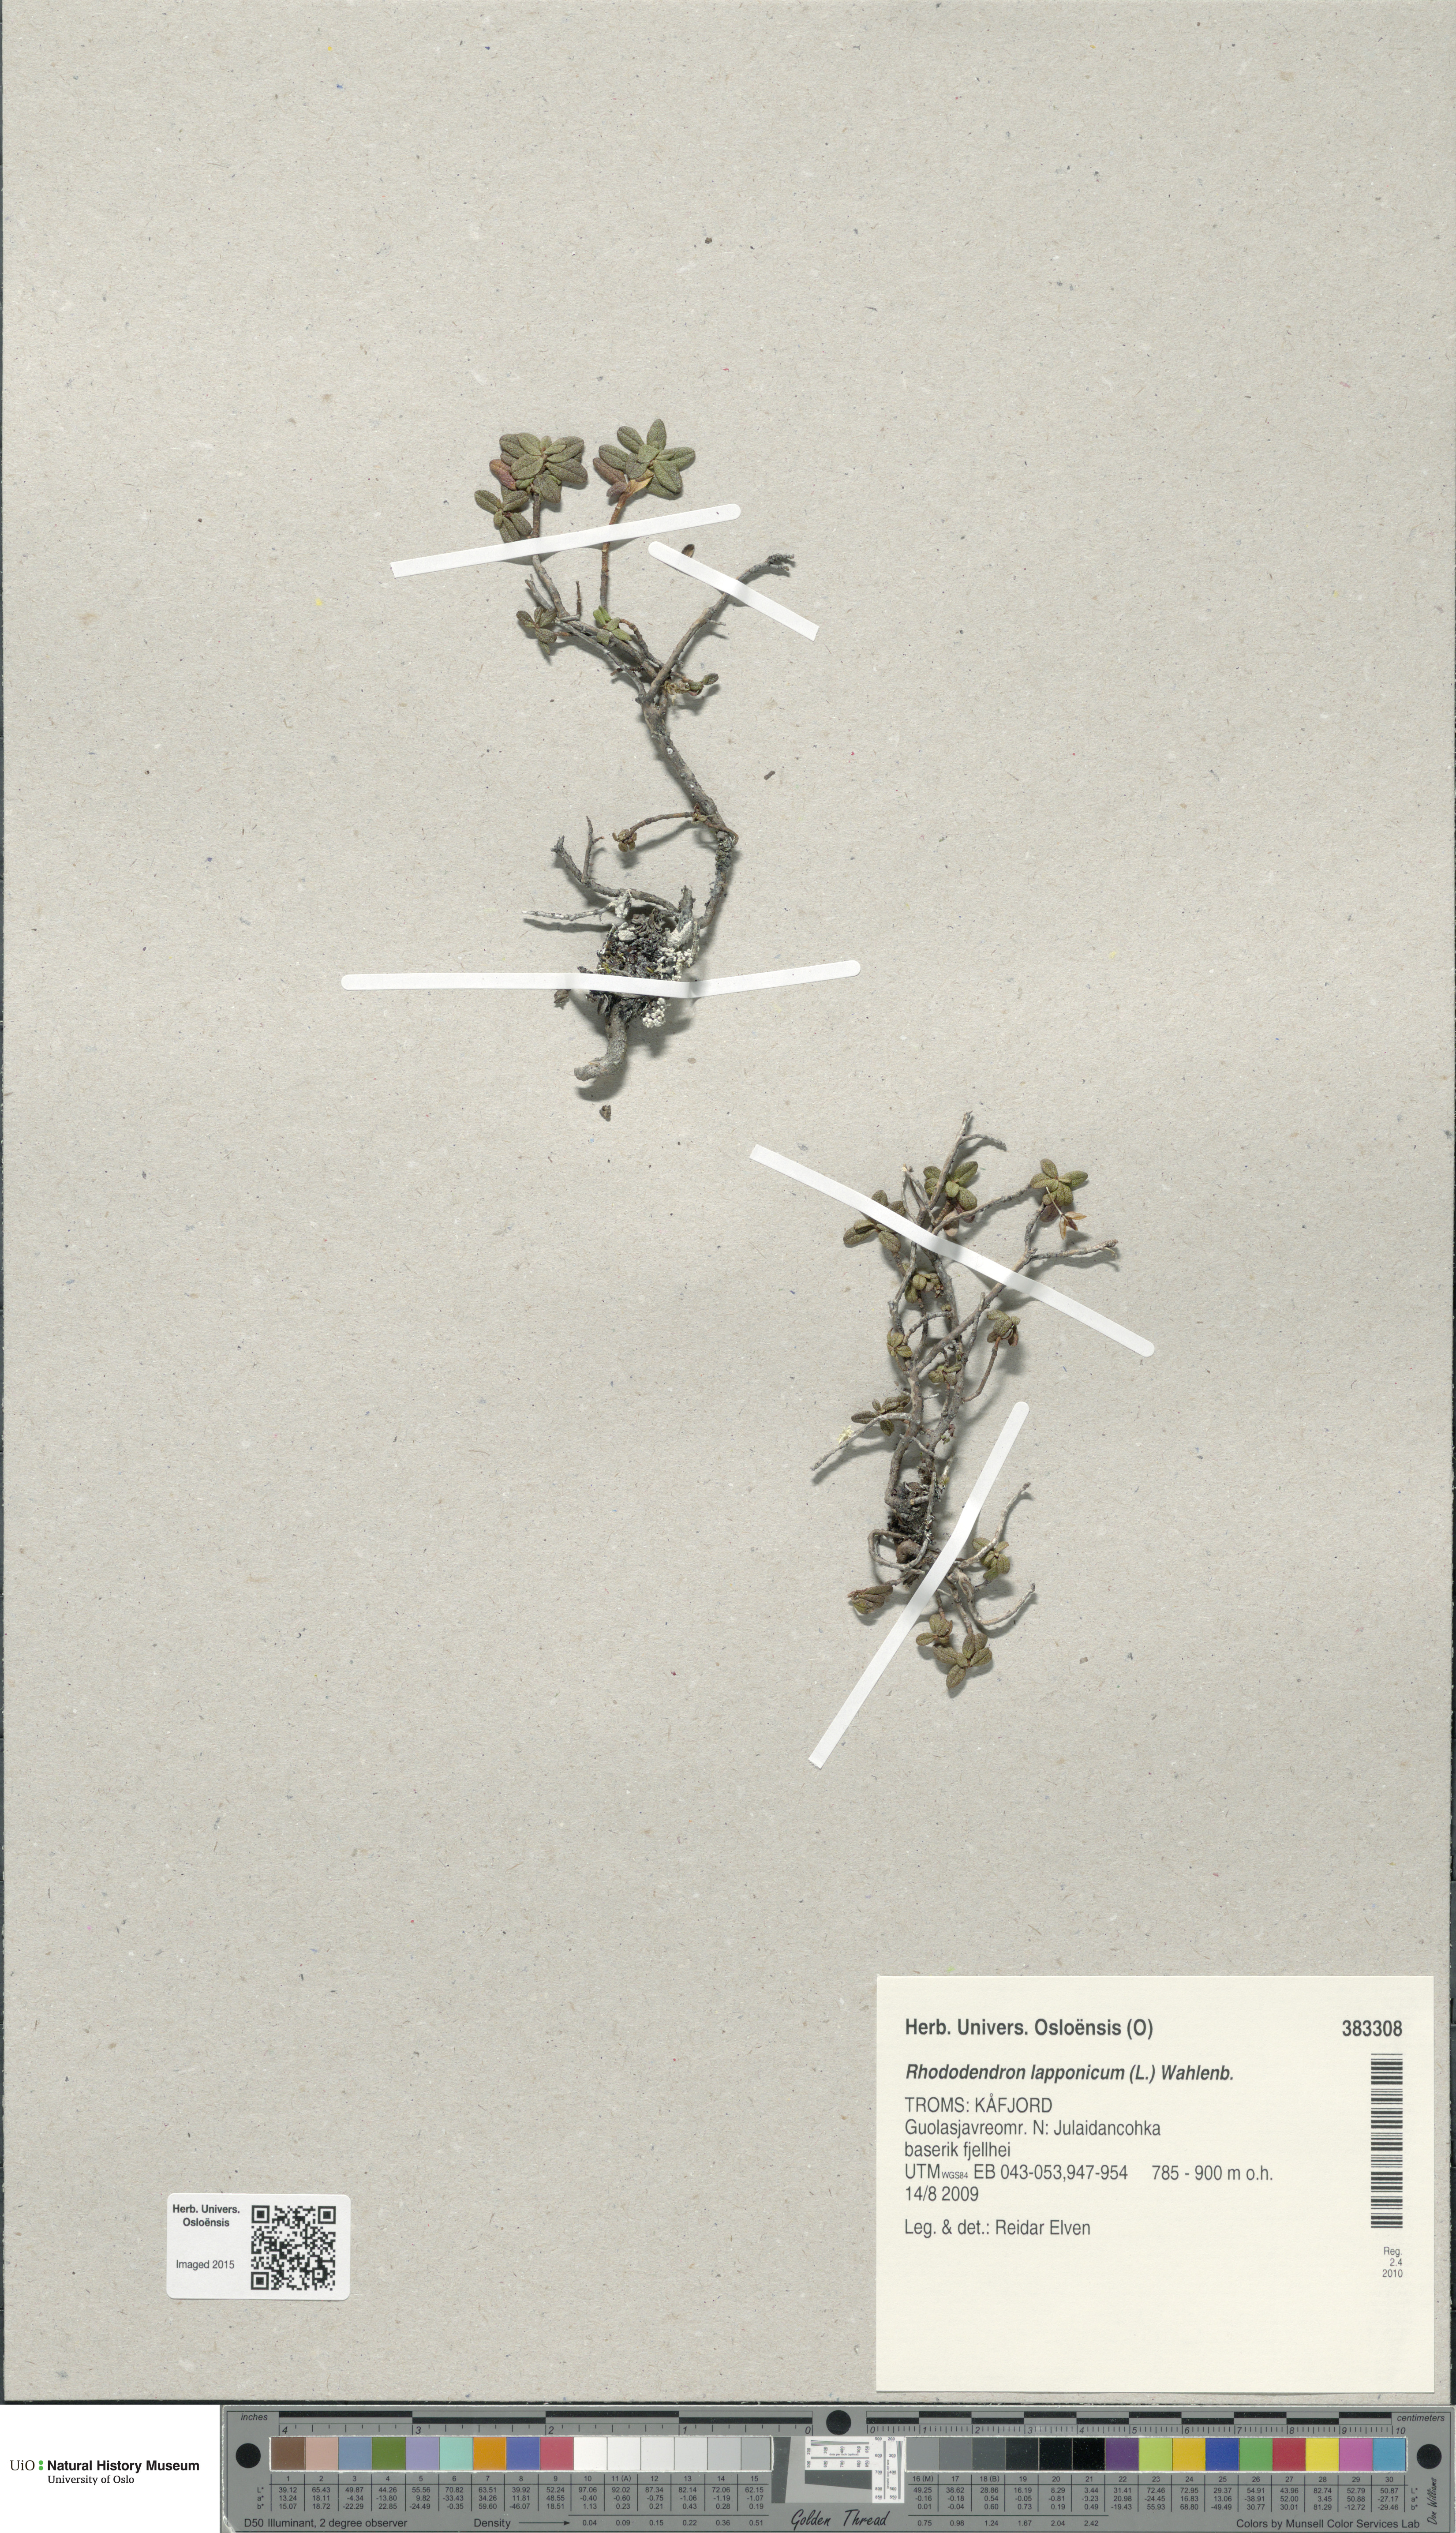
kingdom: Plantae
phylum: Tracheophyta
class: Magnoliopsida
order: Ericales
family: Ericaceae
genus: Rhododendron
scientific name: Rhododendron lapponicum
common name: Lapland rhododendron
